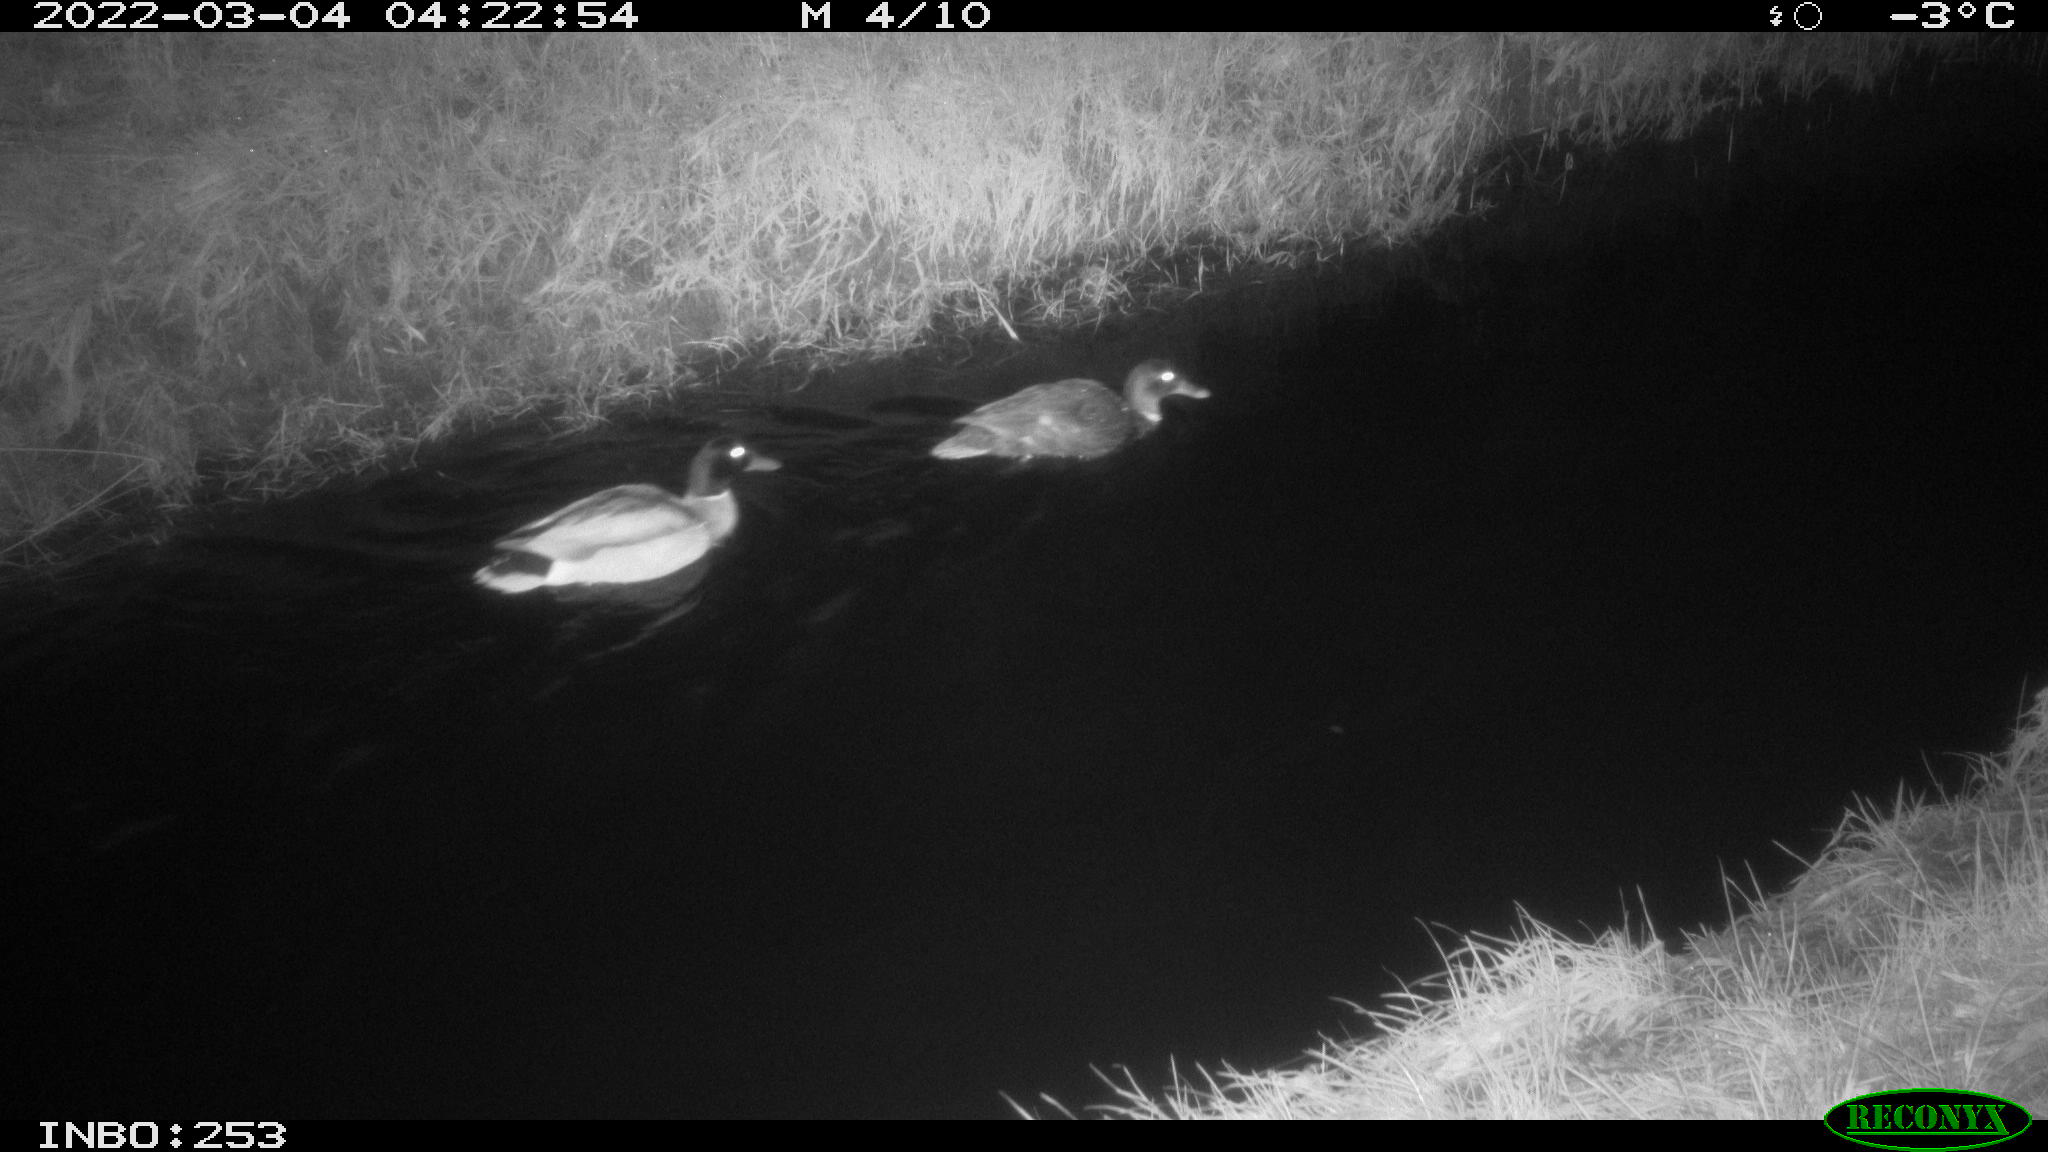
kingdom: Animalia
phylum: Chordata
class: Aves
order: Anseriformes
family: Anatidae
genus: Anas
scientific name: Anas platyrhynchos
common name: Mallard
